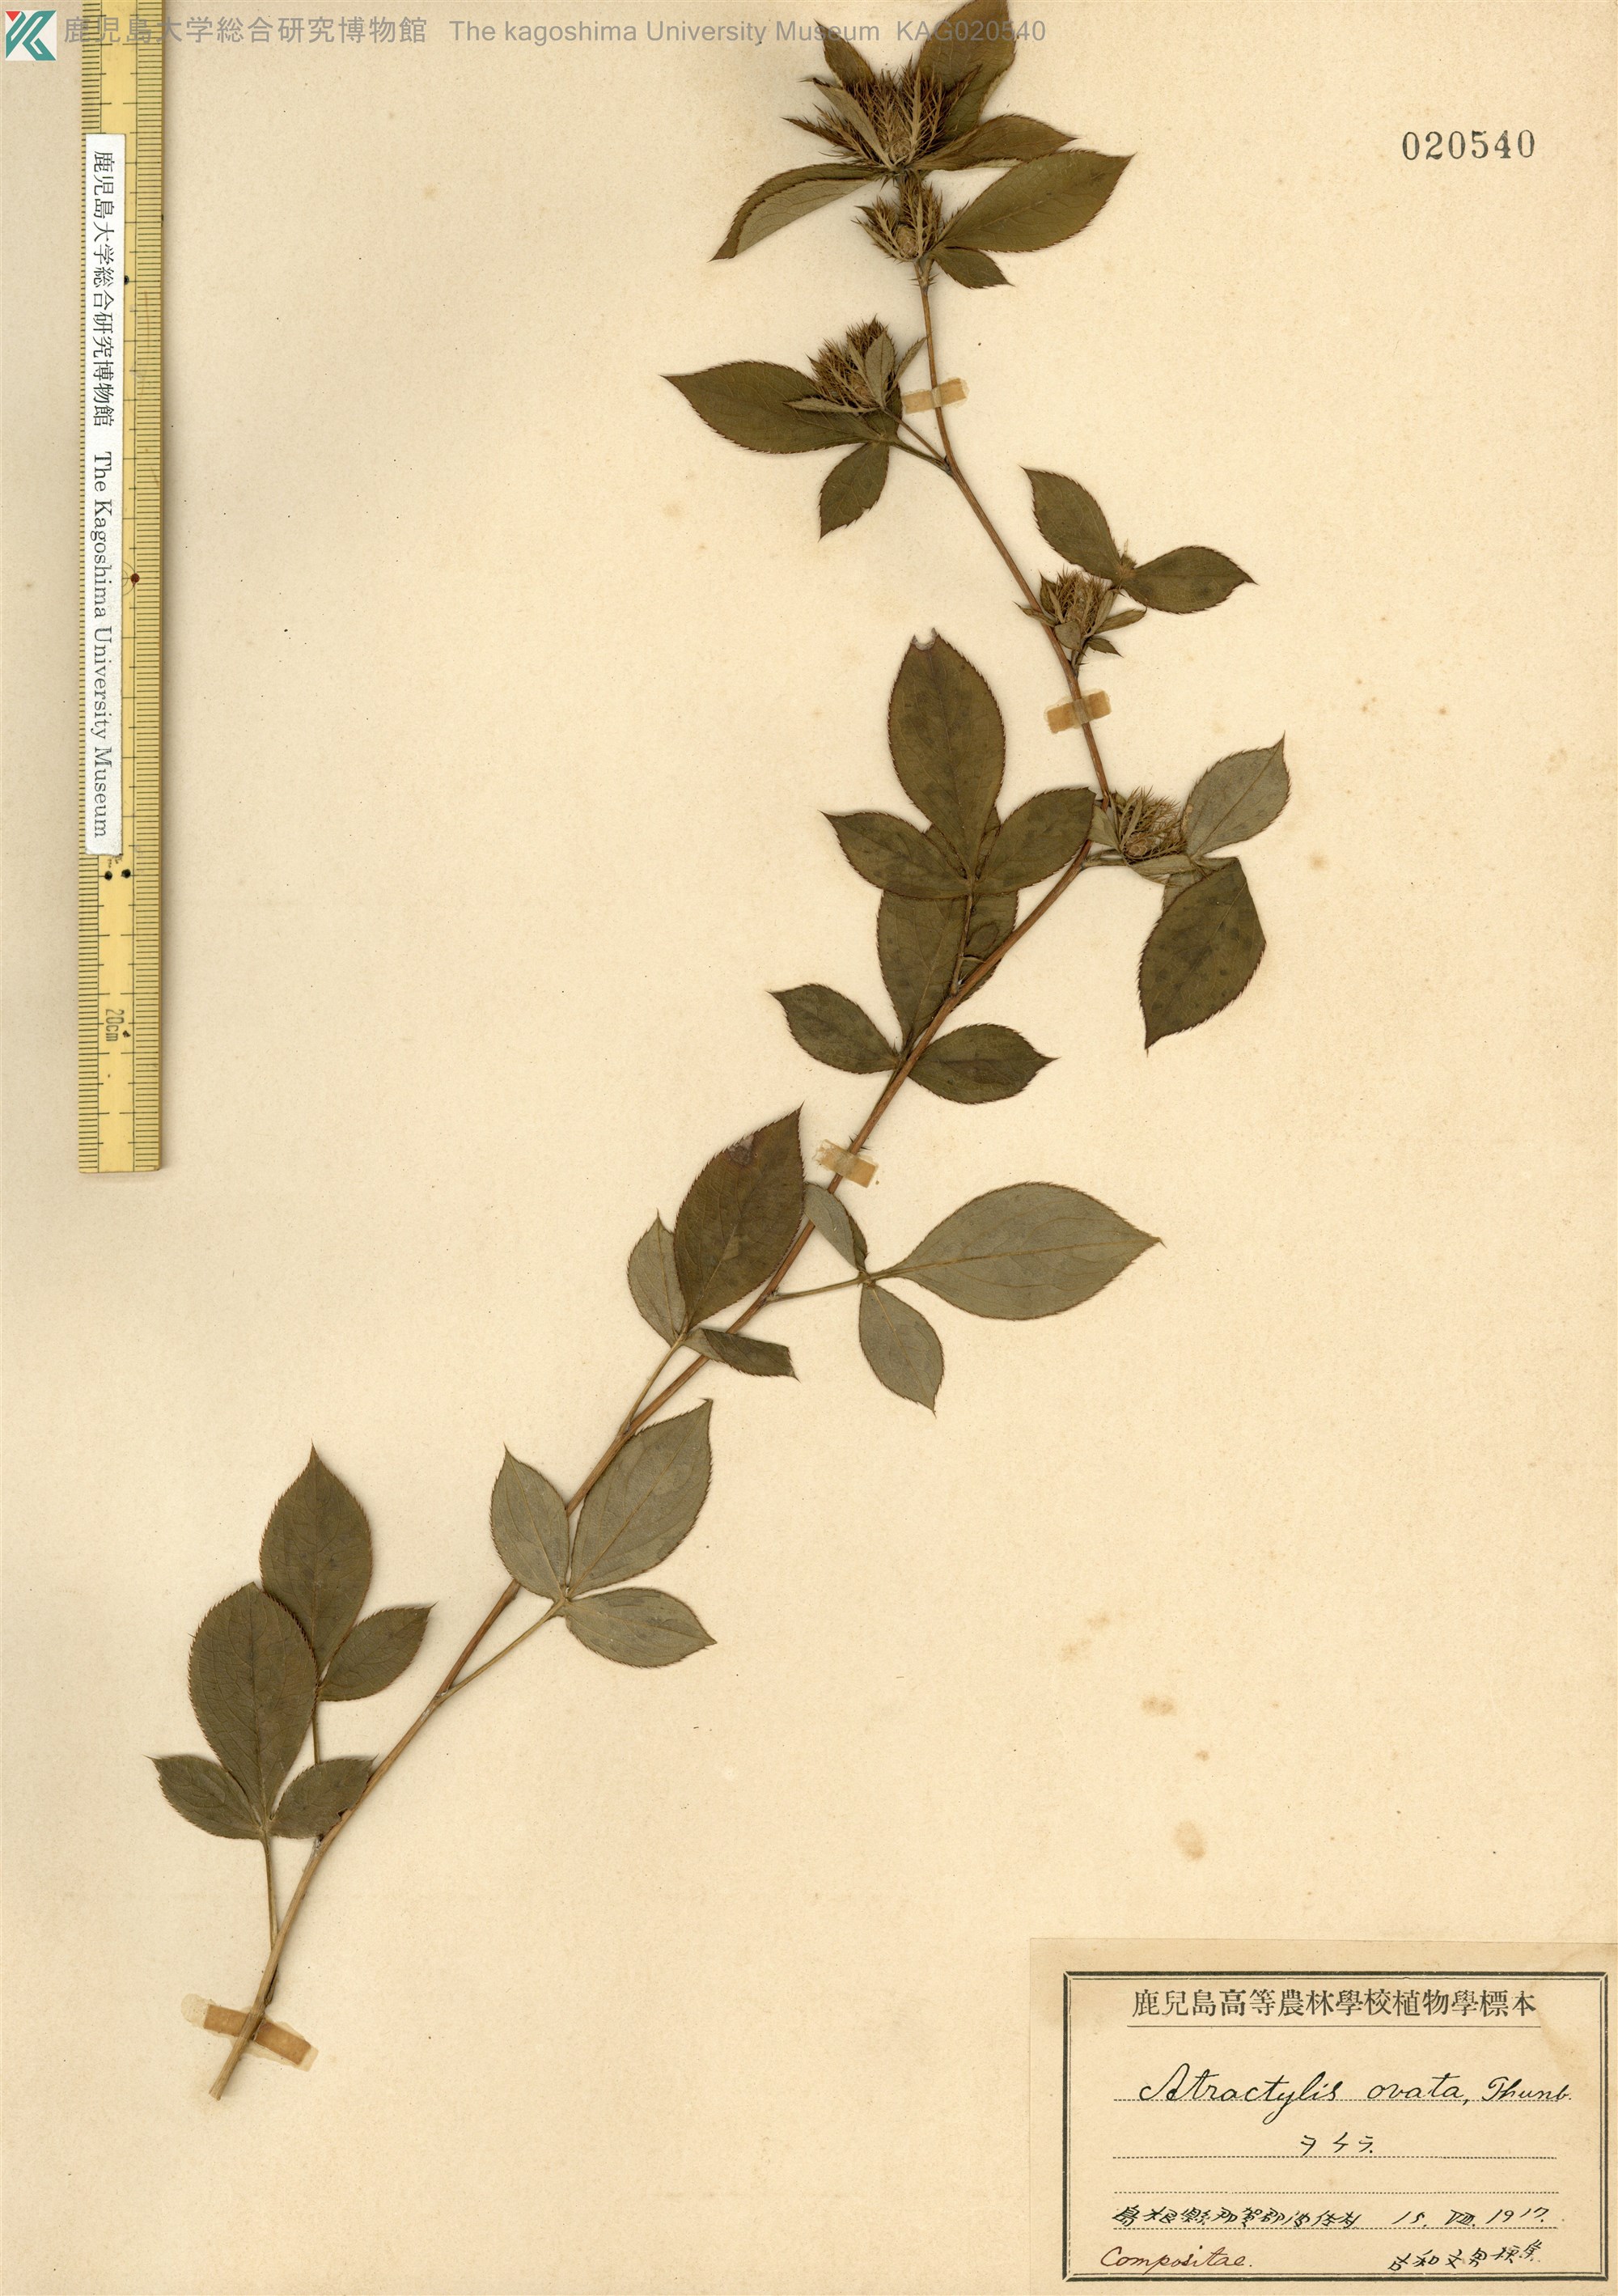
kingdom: Plantae
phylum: Tracheophyta
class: Magnoliopsida
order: Asterales
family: Asteraceae
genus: Atractylodes
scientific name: Atractylodes lancea
